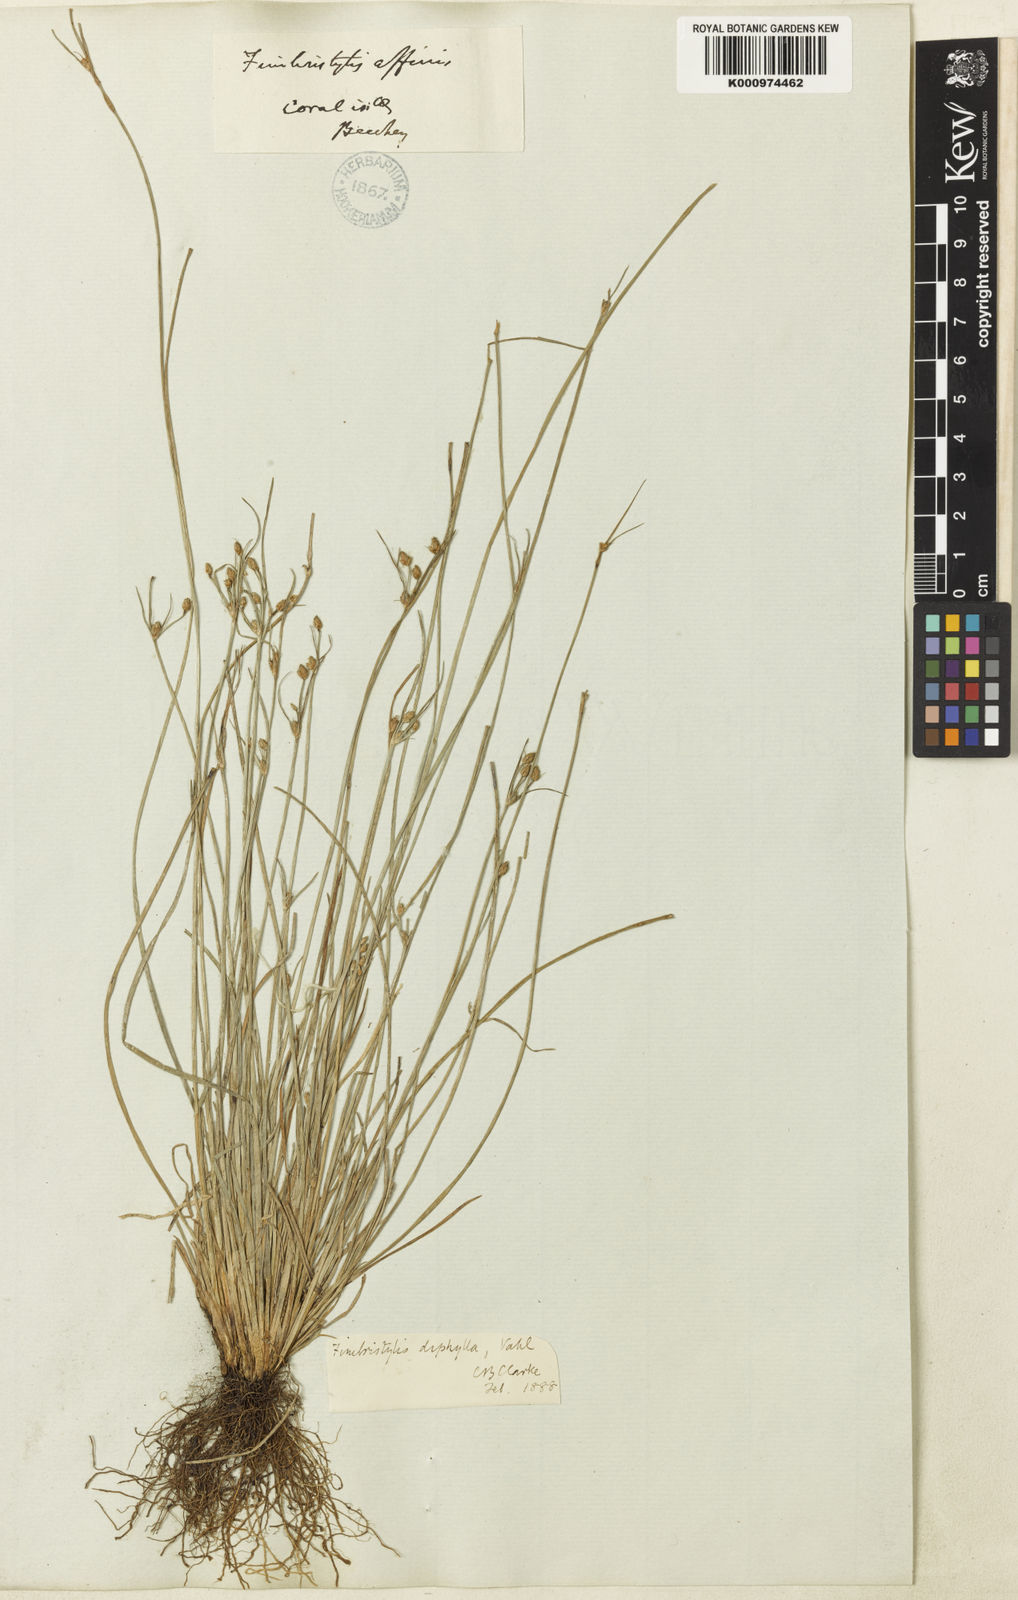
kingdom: Plantae
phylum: Tracheophyta
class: Liliopsida
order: Poales
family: Cyperaceae
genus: Fimbristylis
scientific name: Fimbristylis dichotoma
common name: Forked fimbry
